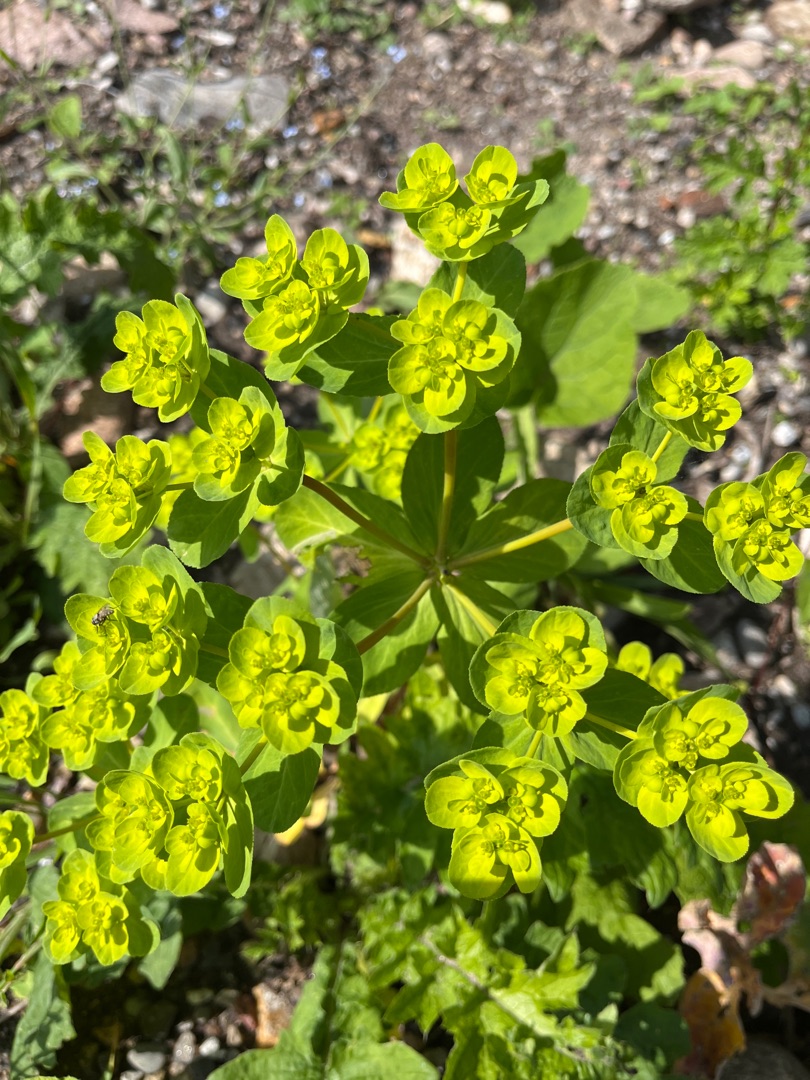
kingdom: Plantae
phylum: Tracheophyta
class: Magnoliopsida
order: Malpighiales
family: Euphorbiaceae
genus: Euphorbia
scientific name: Euphorbia helioscopia
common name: Skærm-vortemælk
